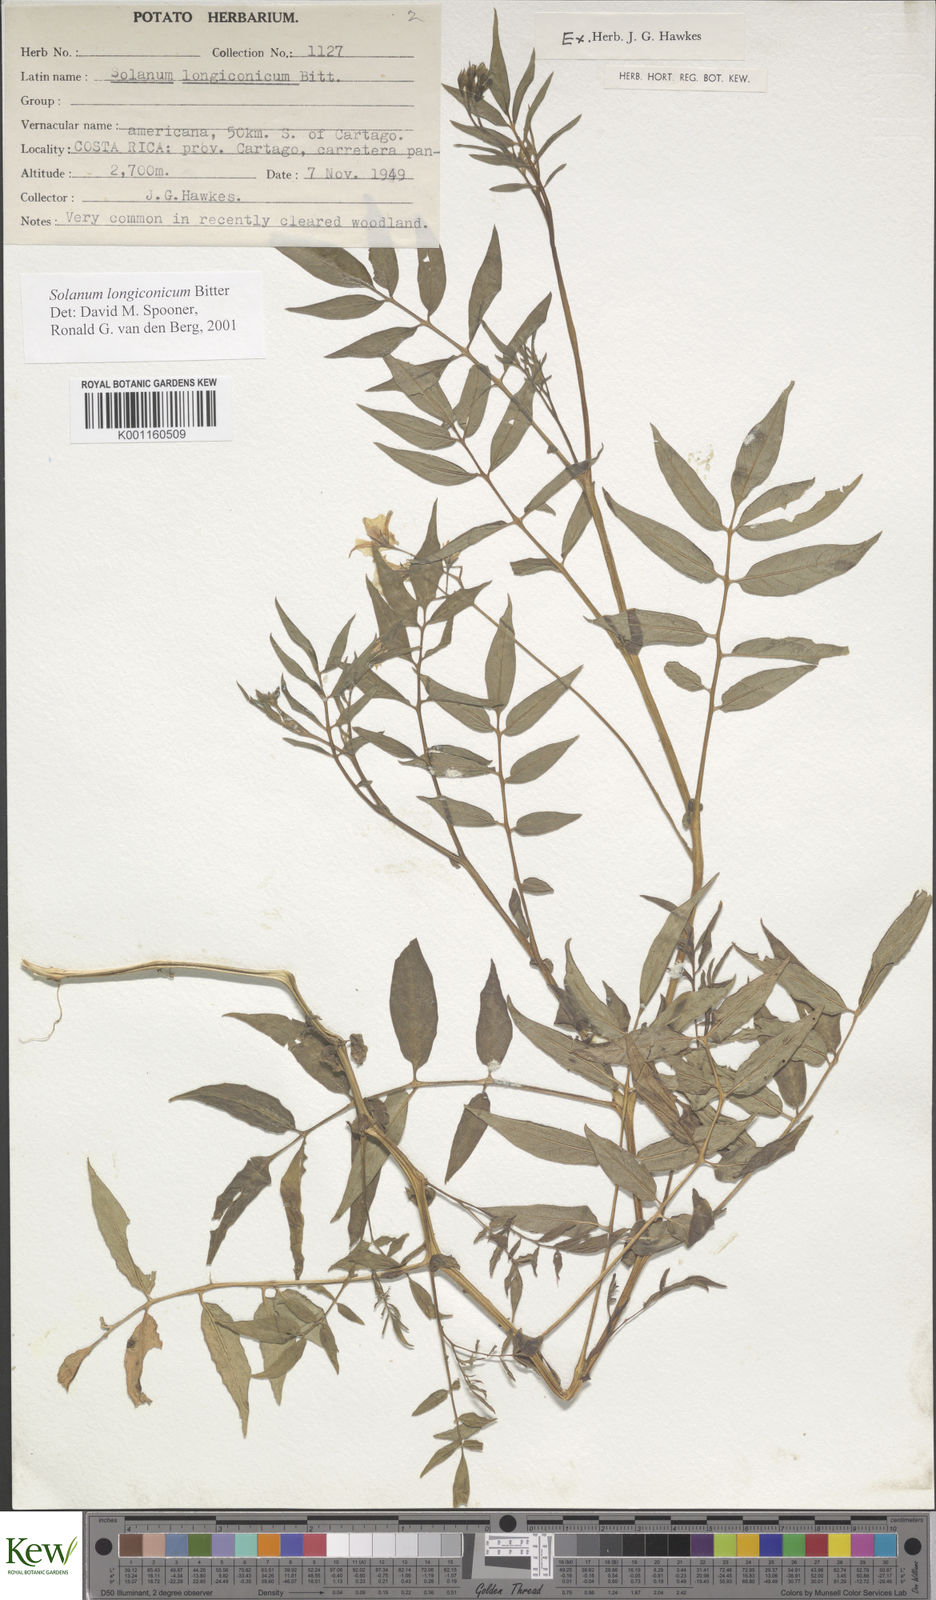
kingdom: Plantae
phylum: Tracheophyta
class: Magnoliopsida
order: Solanales
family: Solanaceae
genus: Solanum
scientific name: Solanum longiconicum
